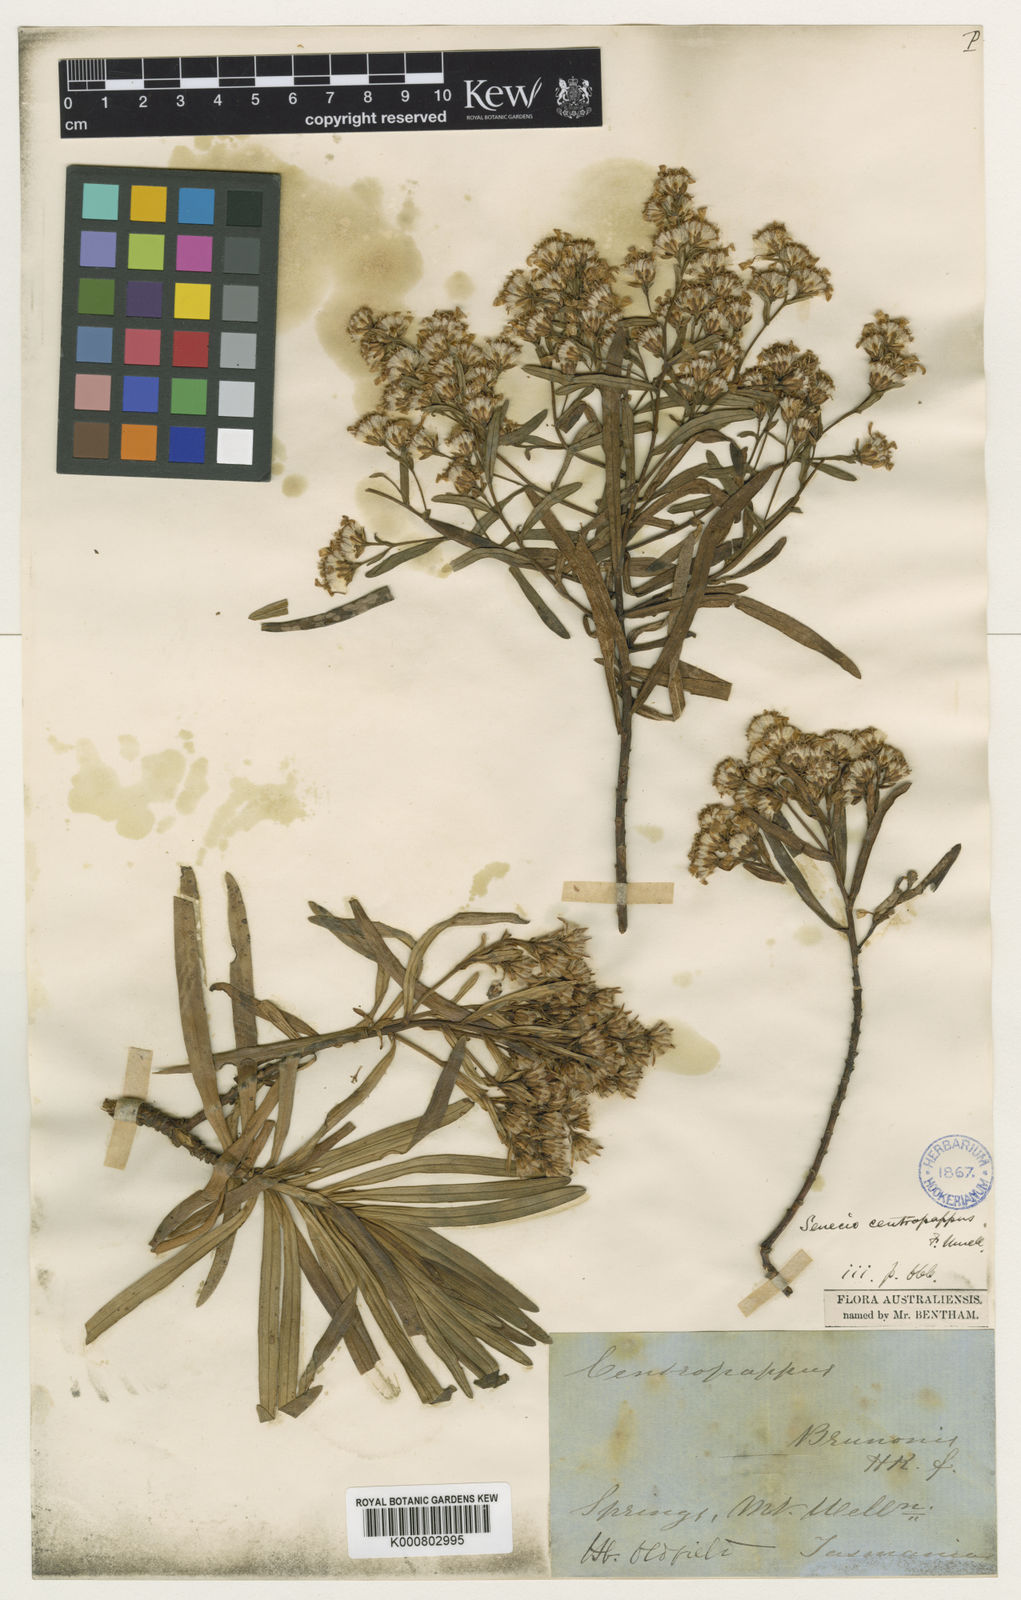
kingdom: Plantae
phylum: Tracheophyta
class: Magnoliopsida
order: Asterales
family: Asteraceae
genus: Centropappus
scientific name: Centropappus brunonis
